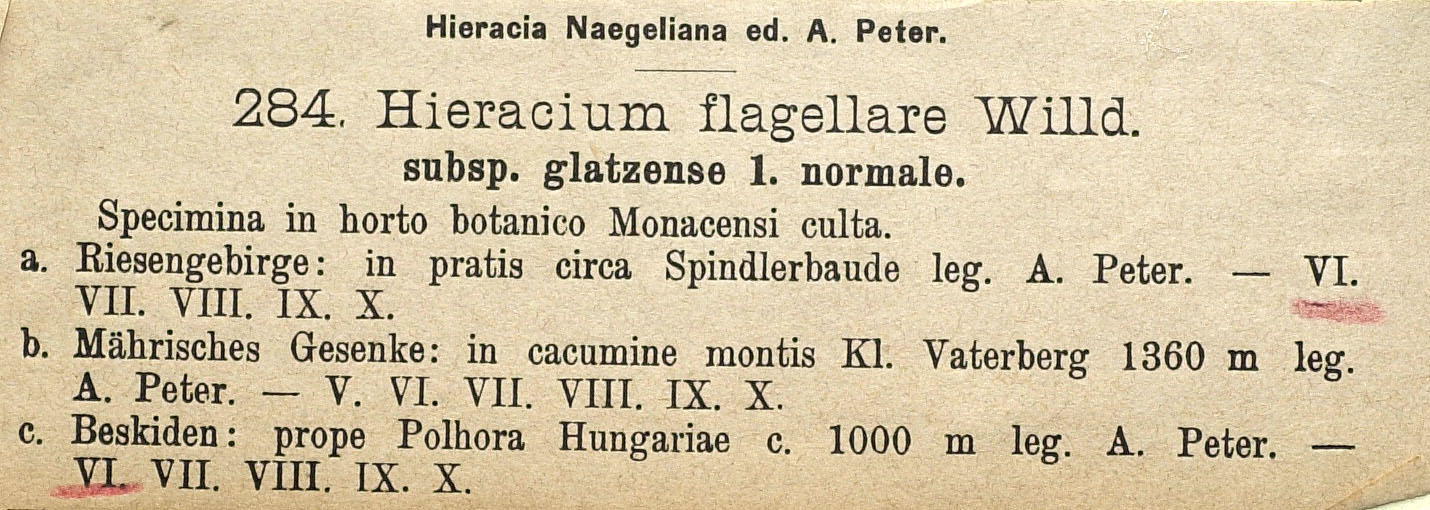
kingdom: Plantae
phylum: Tracheophyta
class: Magnoliopsida
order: Asterales
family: Asteraceae
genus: Pilosella
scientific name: Pilosella
